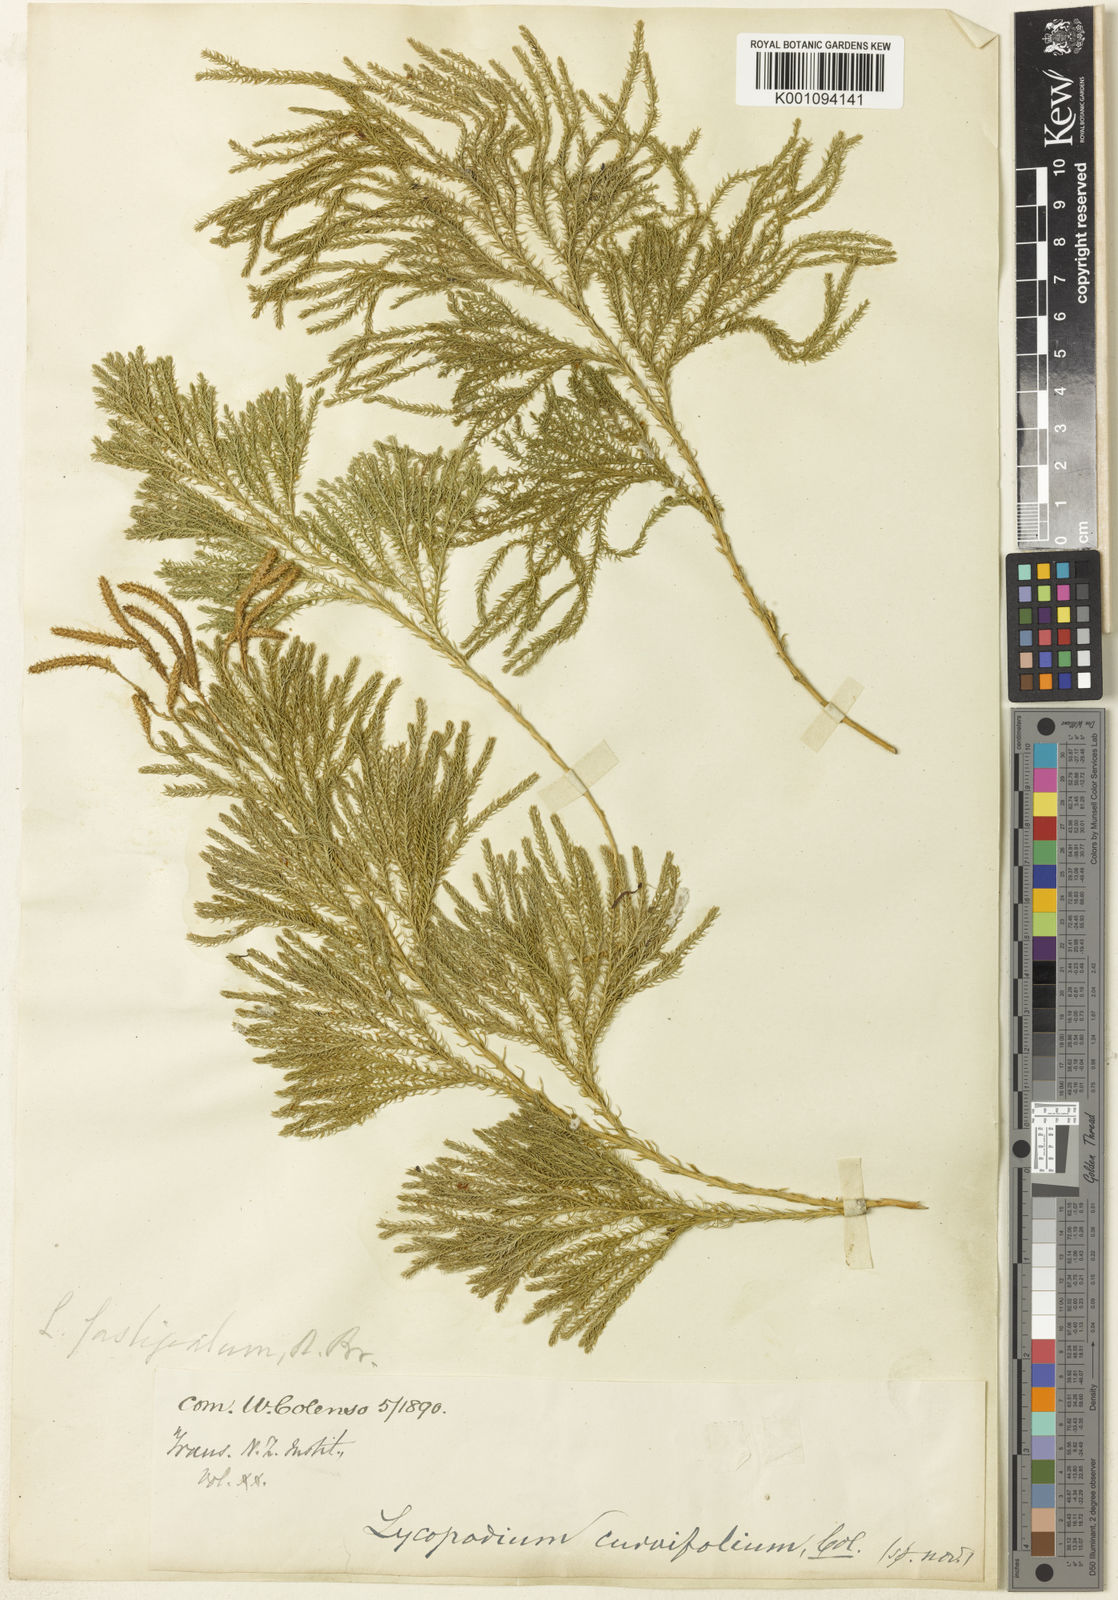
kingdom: Plantae
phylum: Tracheophyta
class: Lycopodiopsida
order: Lycopodiales
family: Lycopodiaceae
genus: Austrolycopodium
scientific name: Austrolycopodium fastigiatum
